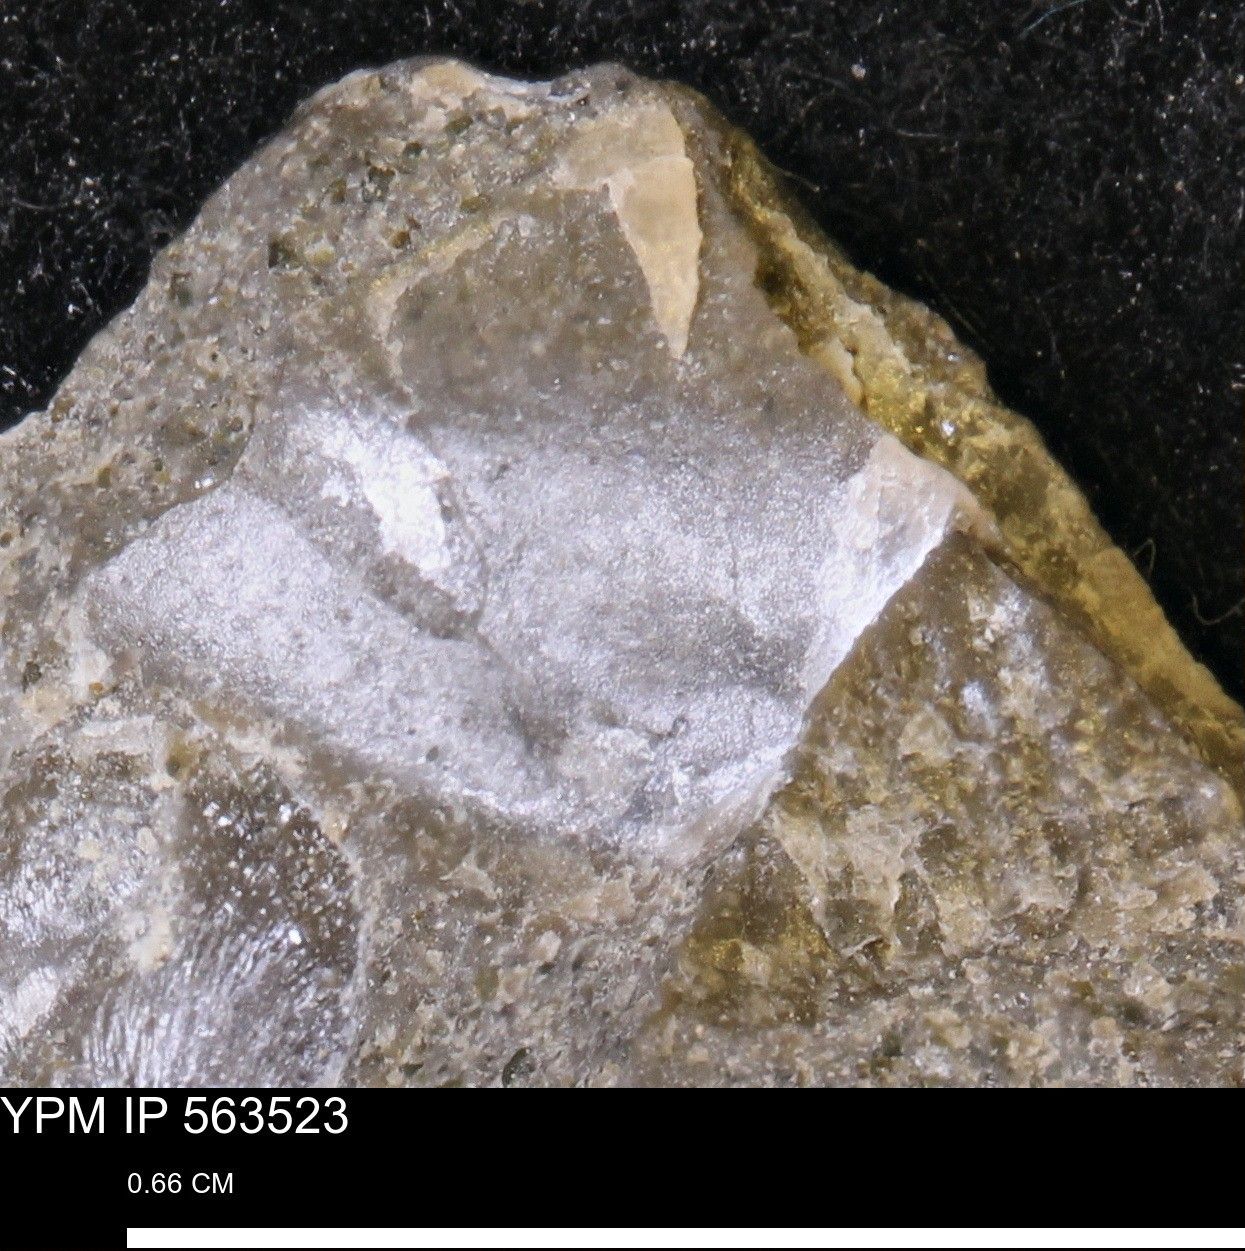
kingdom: Animalia
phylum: Mollusca
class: Bivalvia
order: Ostreida
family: Bakevelliidae
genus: Pseudoptera
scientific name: Pseudoptera
